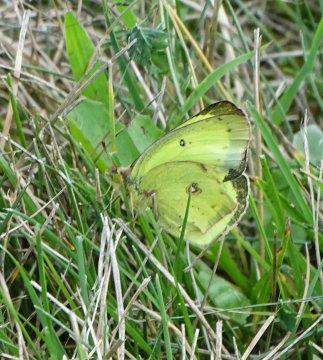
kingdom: Animalia
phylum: Arthropoda
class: Insecta
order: Lepidoptera
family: Pieridae
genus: Colias
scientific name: Colias philodice
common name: Clouded Sulphur
